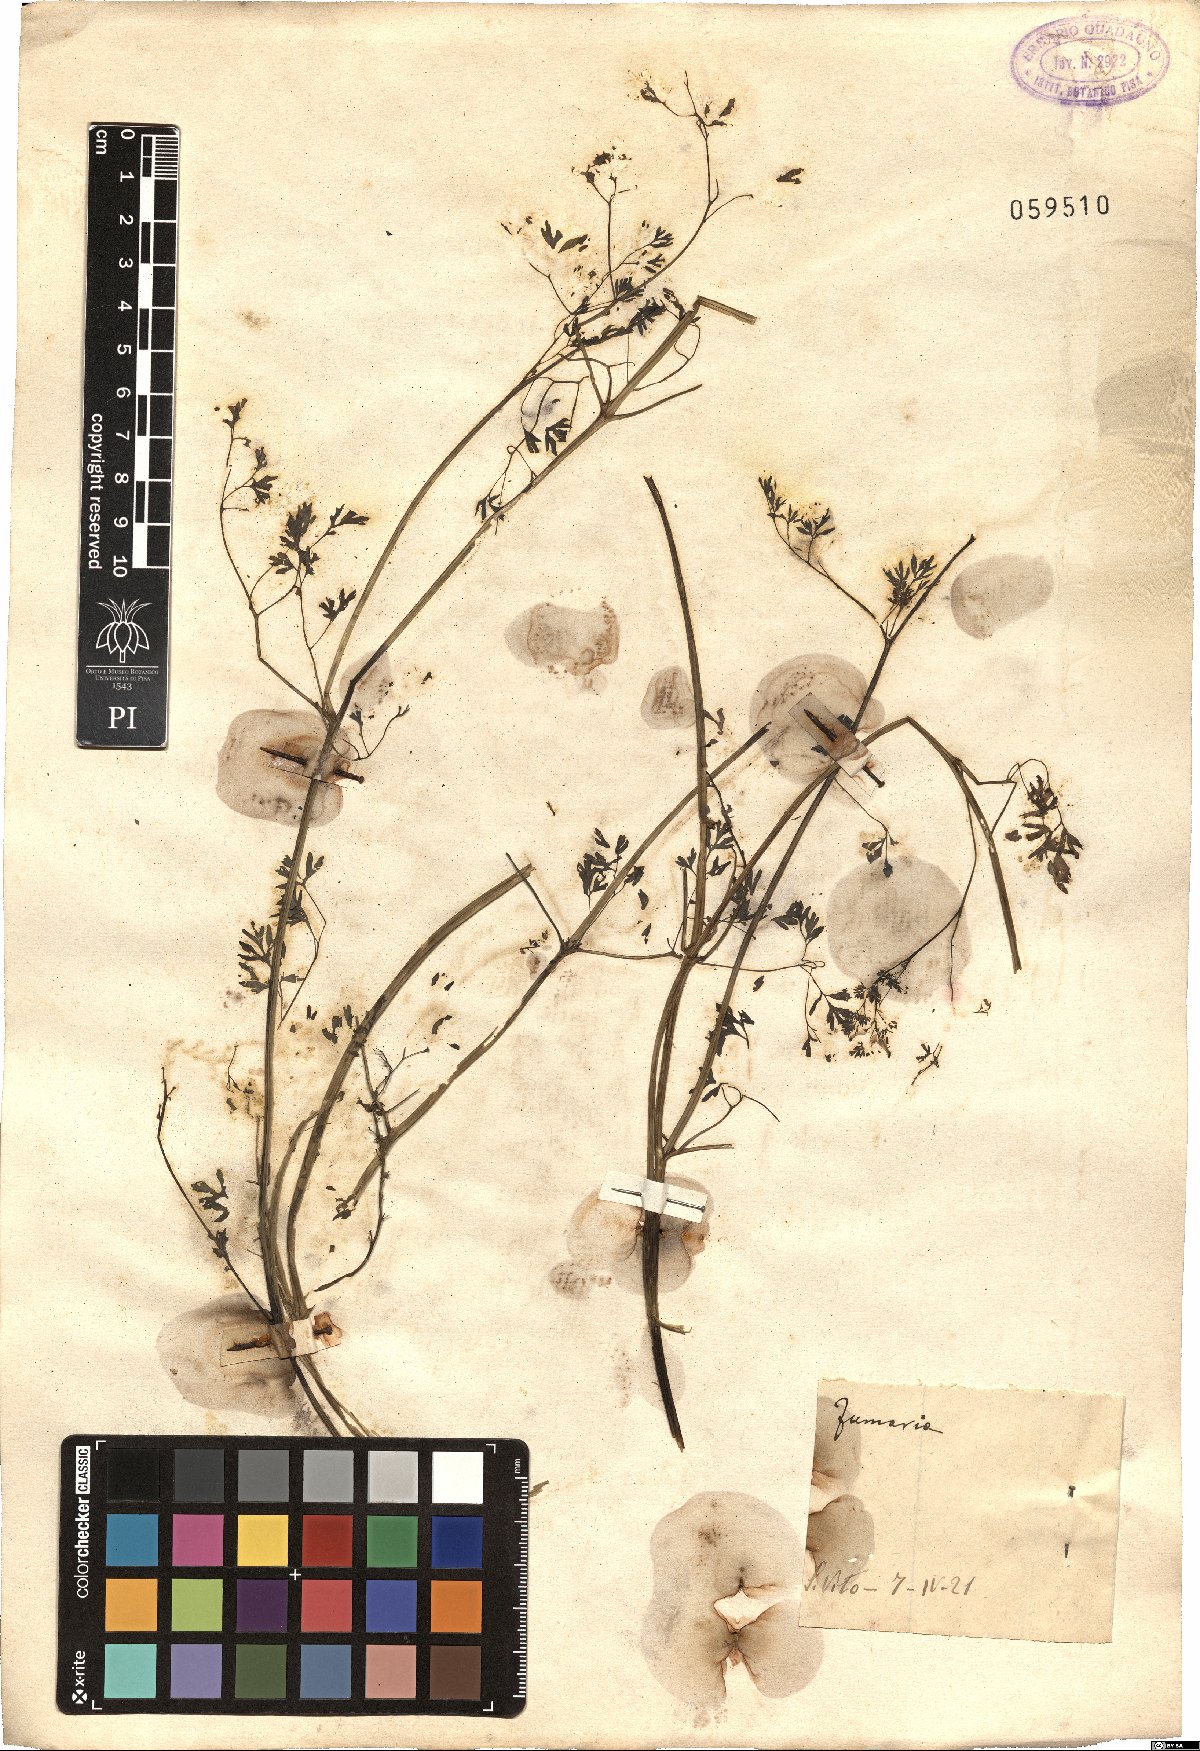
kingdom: Plantae
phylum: Tracheophyta
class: Magnoliopsida
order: Ranunculales
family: Papaveraceae
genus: Fumaria
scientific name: Fumaria
